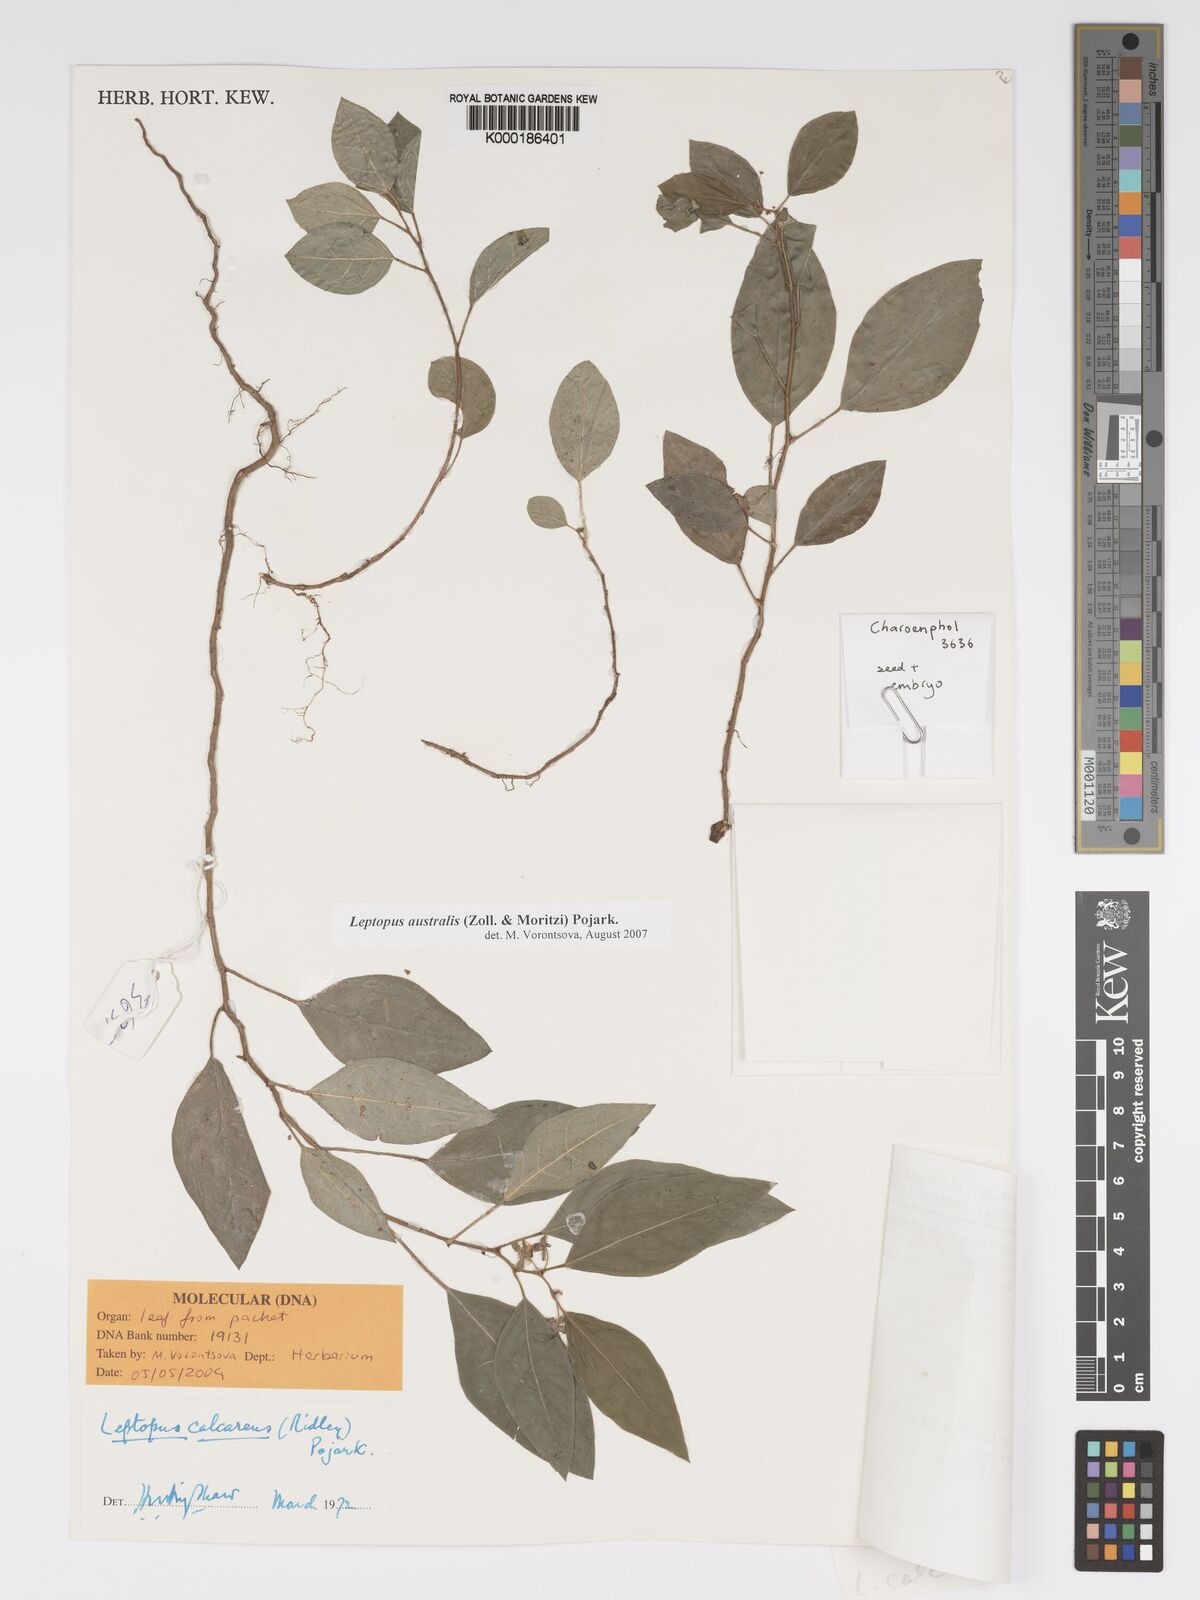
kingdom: Plantae
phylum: Tracheophyta
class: Magnoliopsida
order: Malpighiales
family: Phyllanthaceae
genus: Andrachne
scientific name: Andrachne
